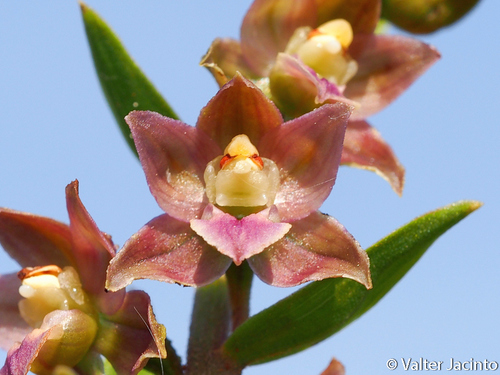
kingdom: Plantae
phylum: Tracheophyta
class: Liliopsida
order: Asparagales
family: Orchidaceae
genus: Epipactis
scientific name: Epipactis helleborine
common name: Broad-leaved helleborine
